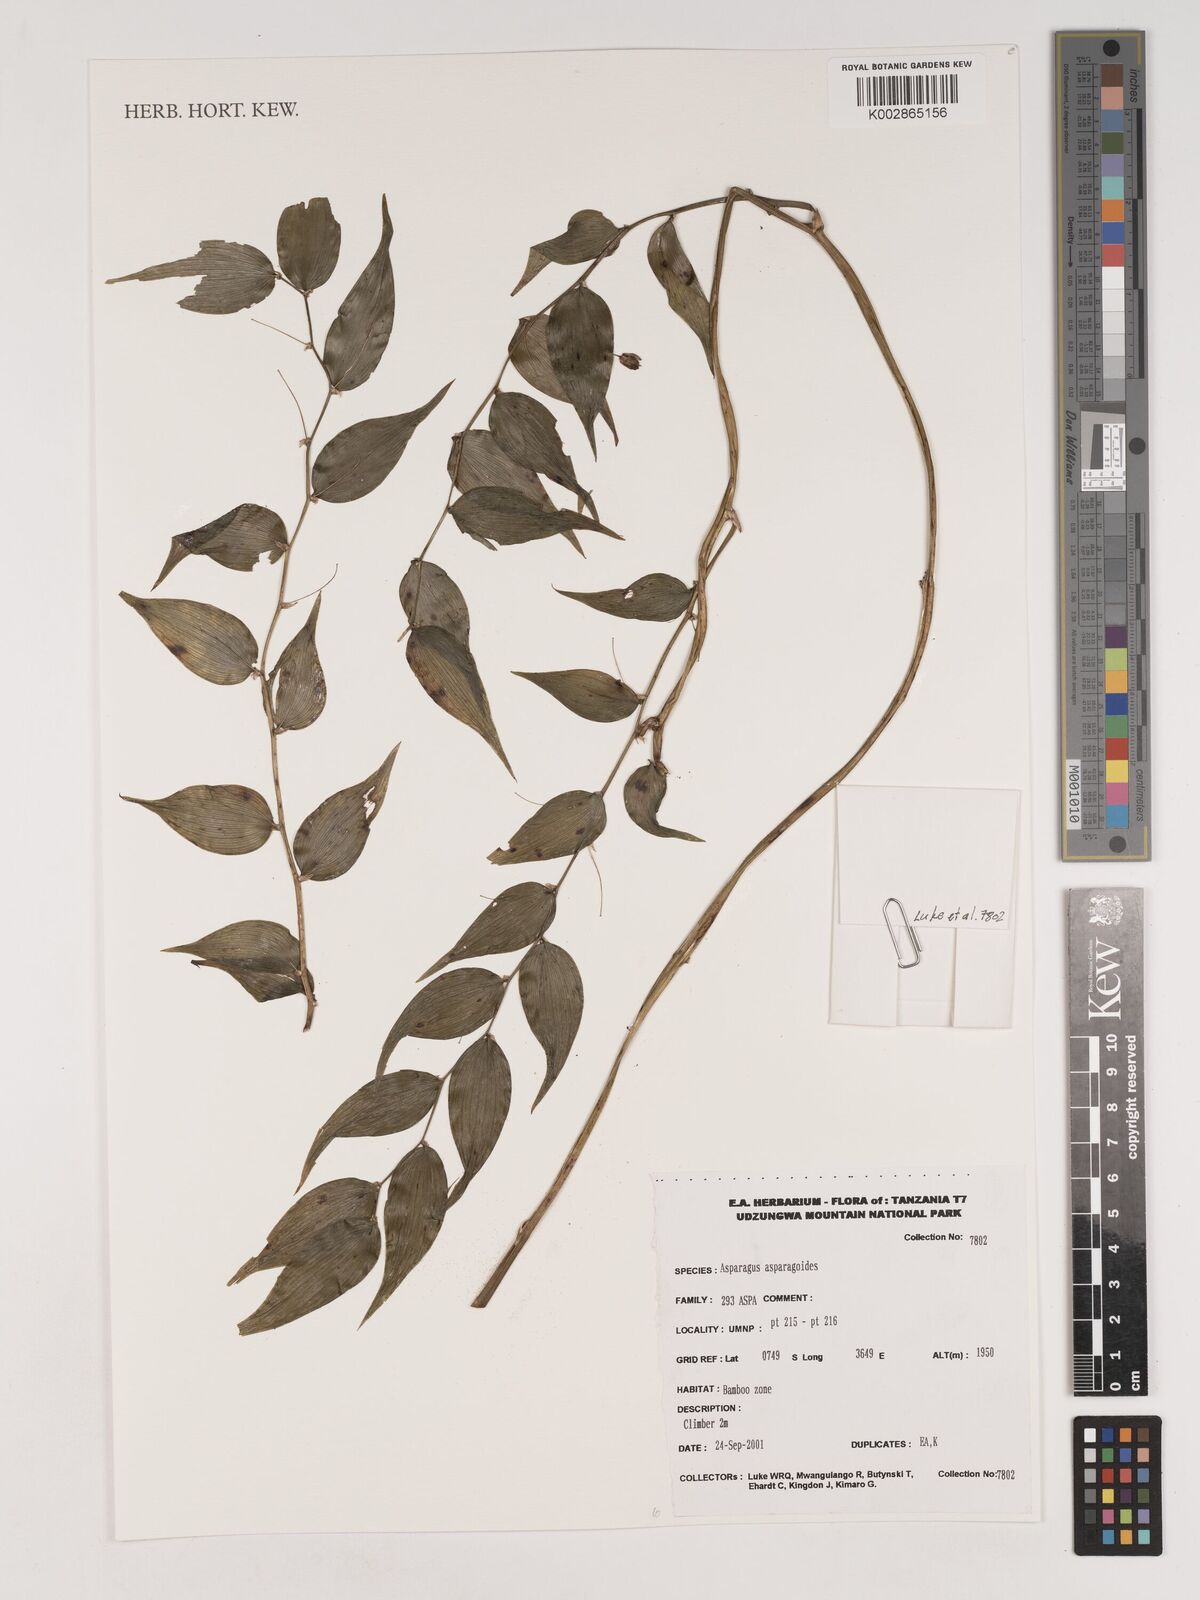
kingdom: Plantae
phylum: Tracheophyta
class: Liliopsida
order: Asparagales
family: Asparagaceae
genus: Asparagus
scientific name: Asparagus asparagoides
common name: African asparagus fern
